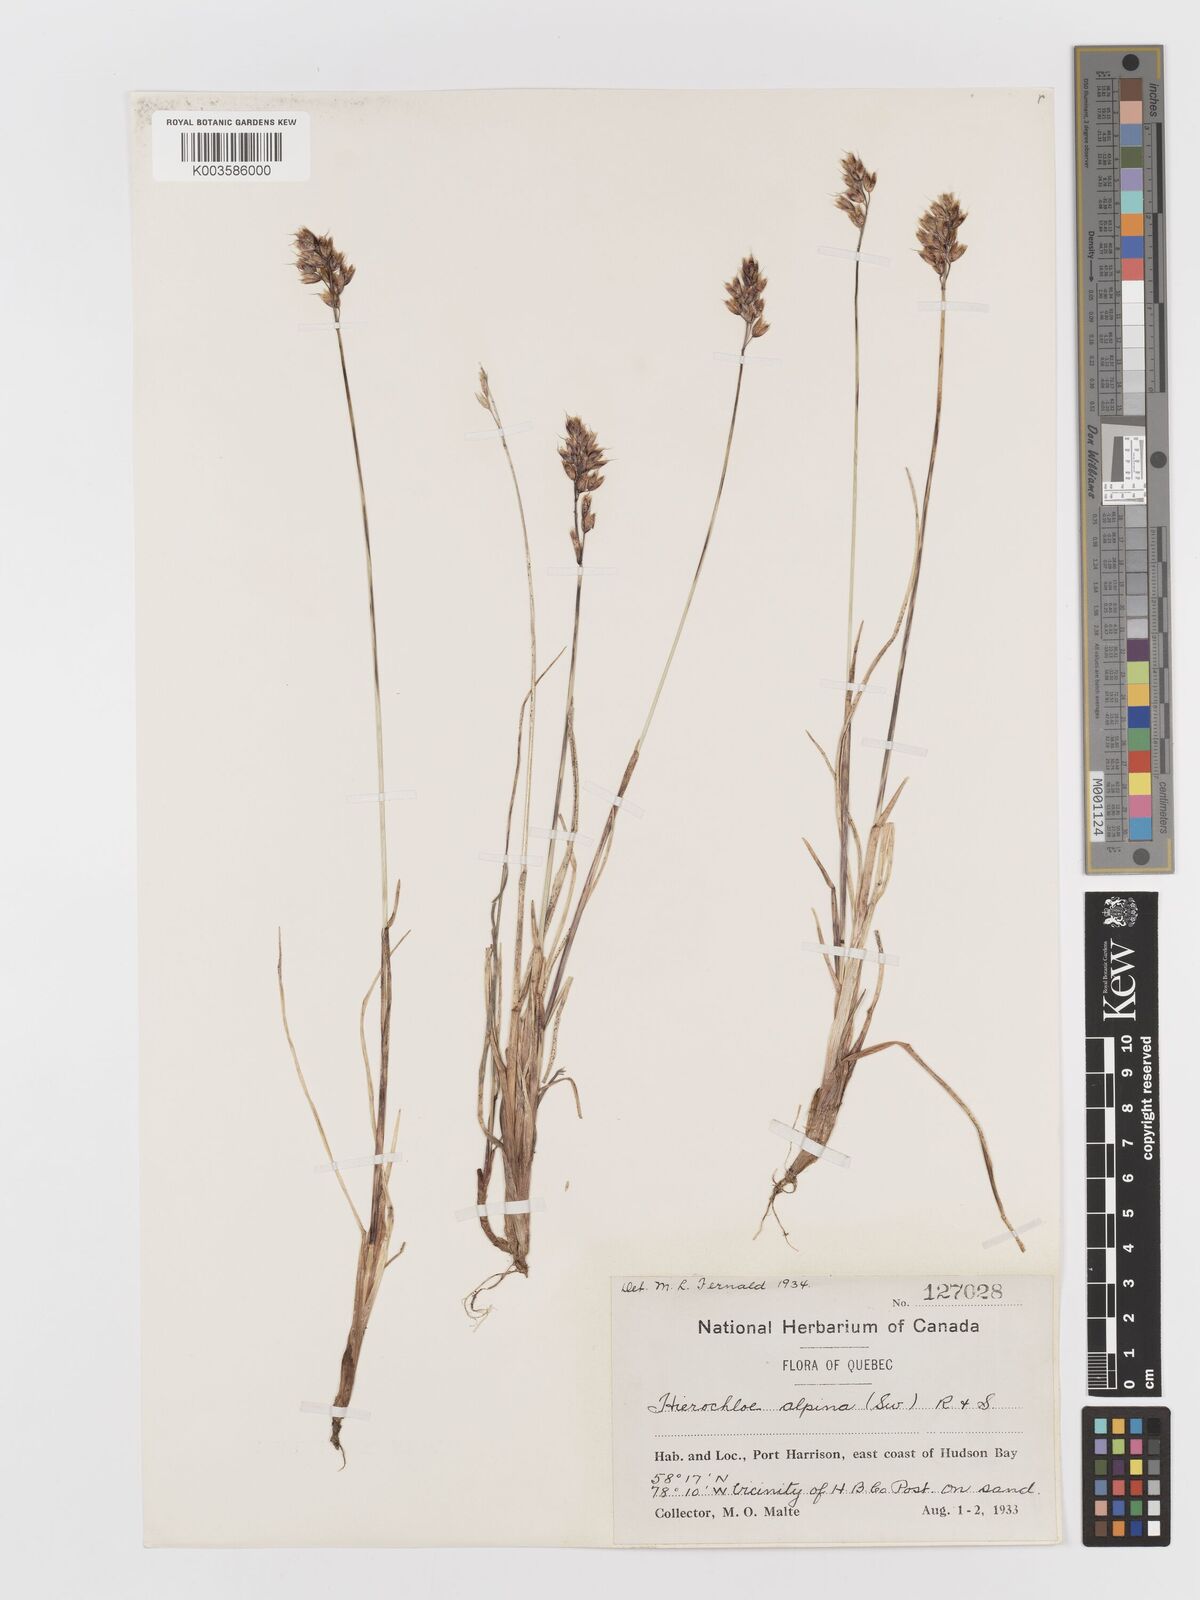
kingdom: Plantae
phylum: Tracheophyta
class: Liliopsida
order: Poales
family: Poaceae
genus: Anthoxanthum
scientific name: Anthoxanthum monticola
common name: Alpine sweetgrass
